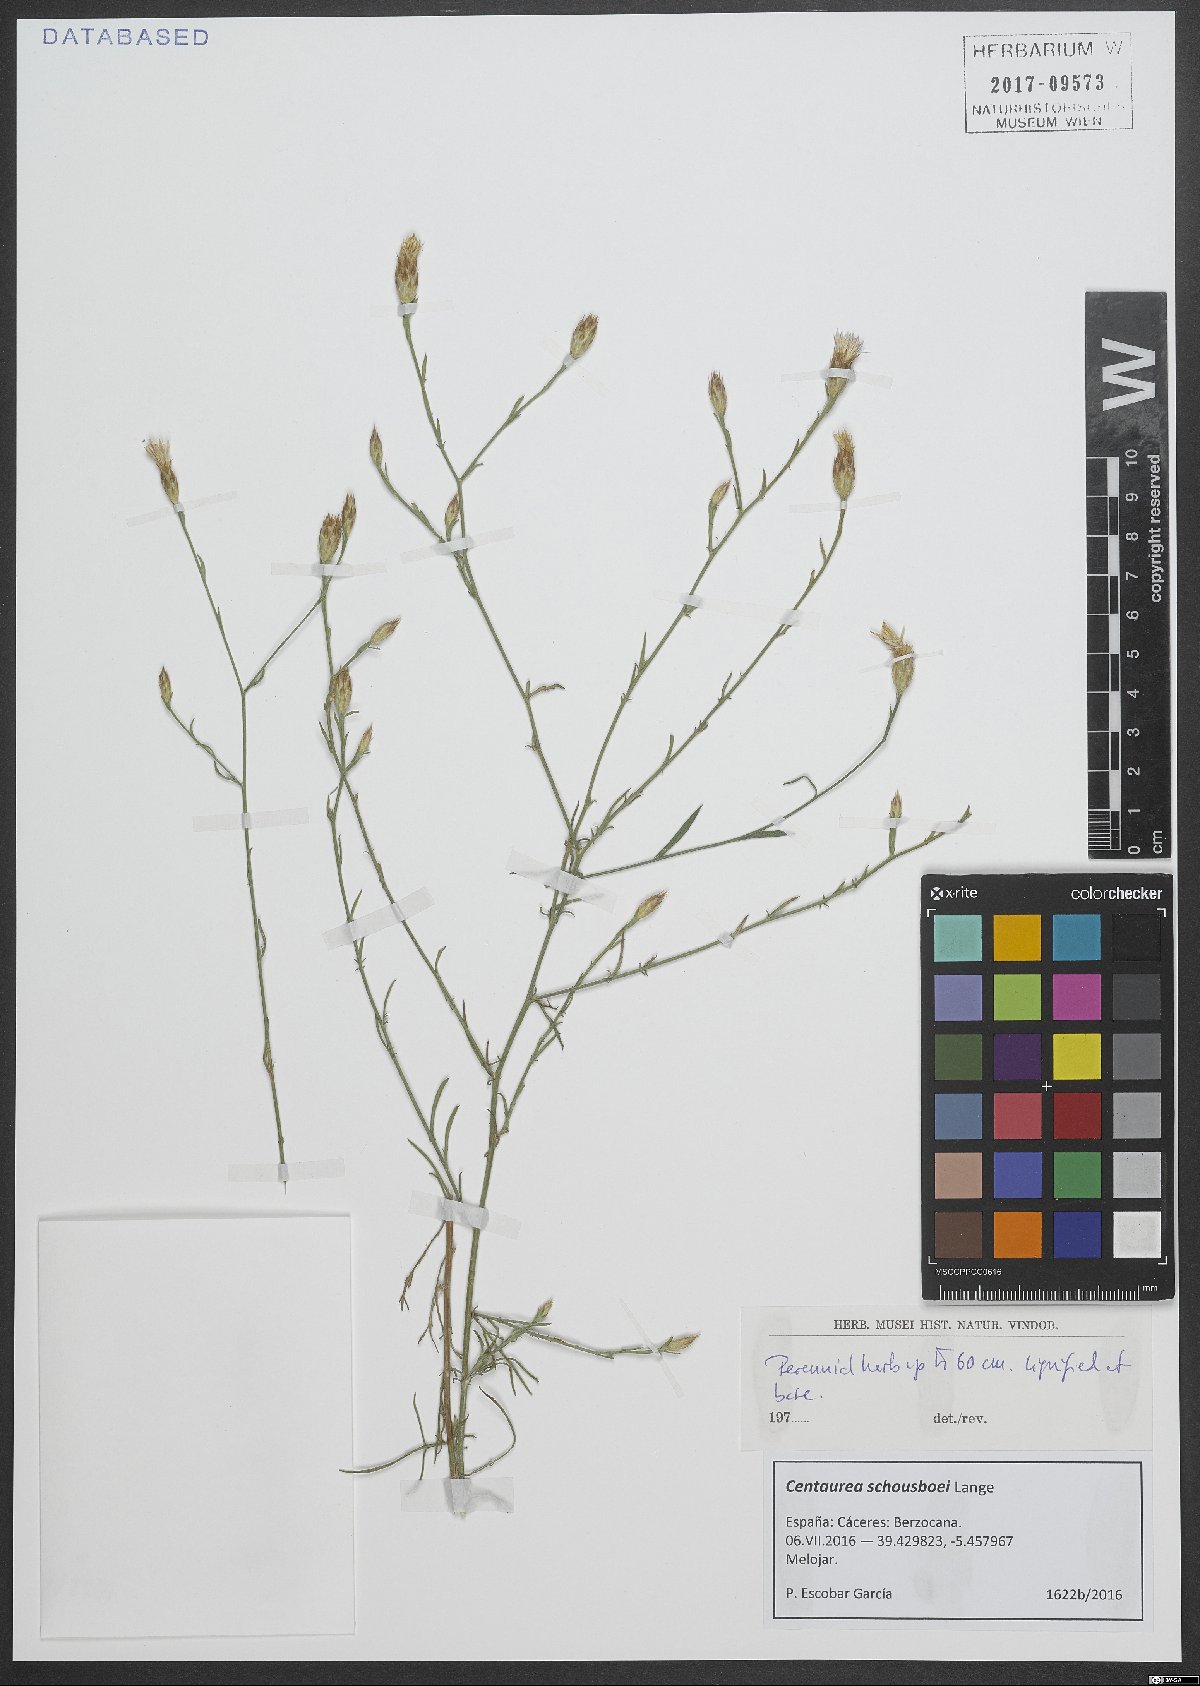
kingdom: Plantae
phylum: Tracheophyta
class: Magnoliopsida
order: Asterales
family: Asteraceae
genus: Centaurea
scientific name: Centaurea schousboei
